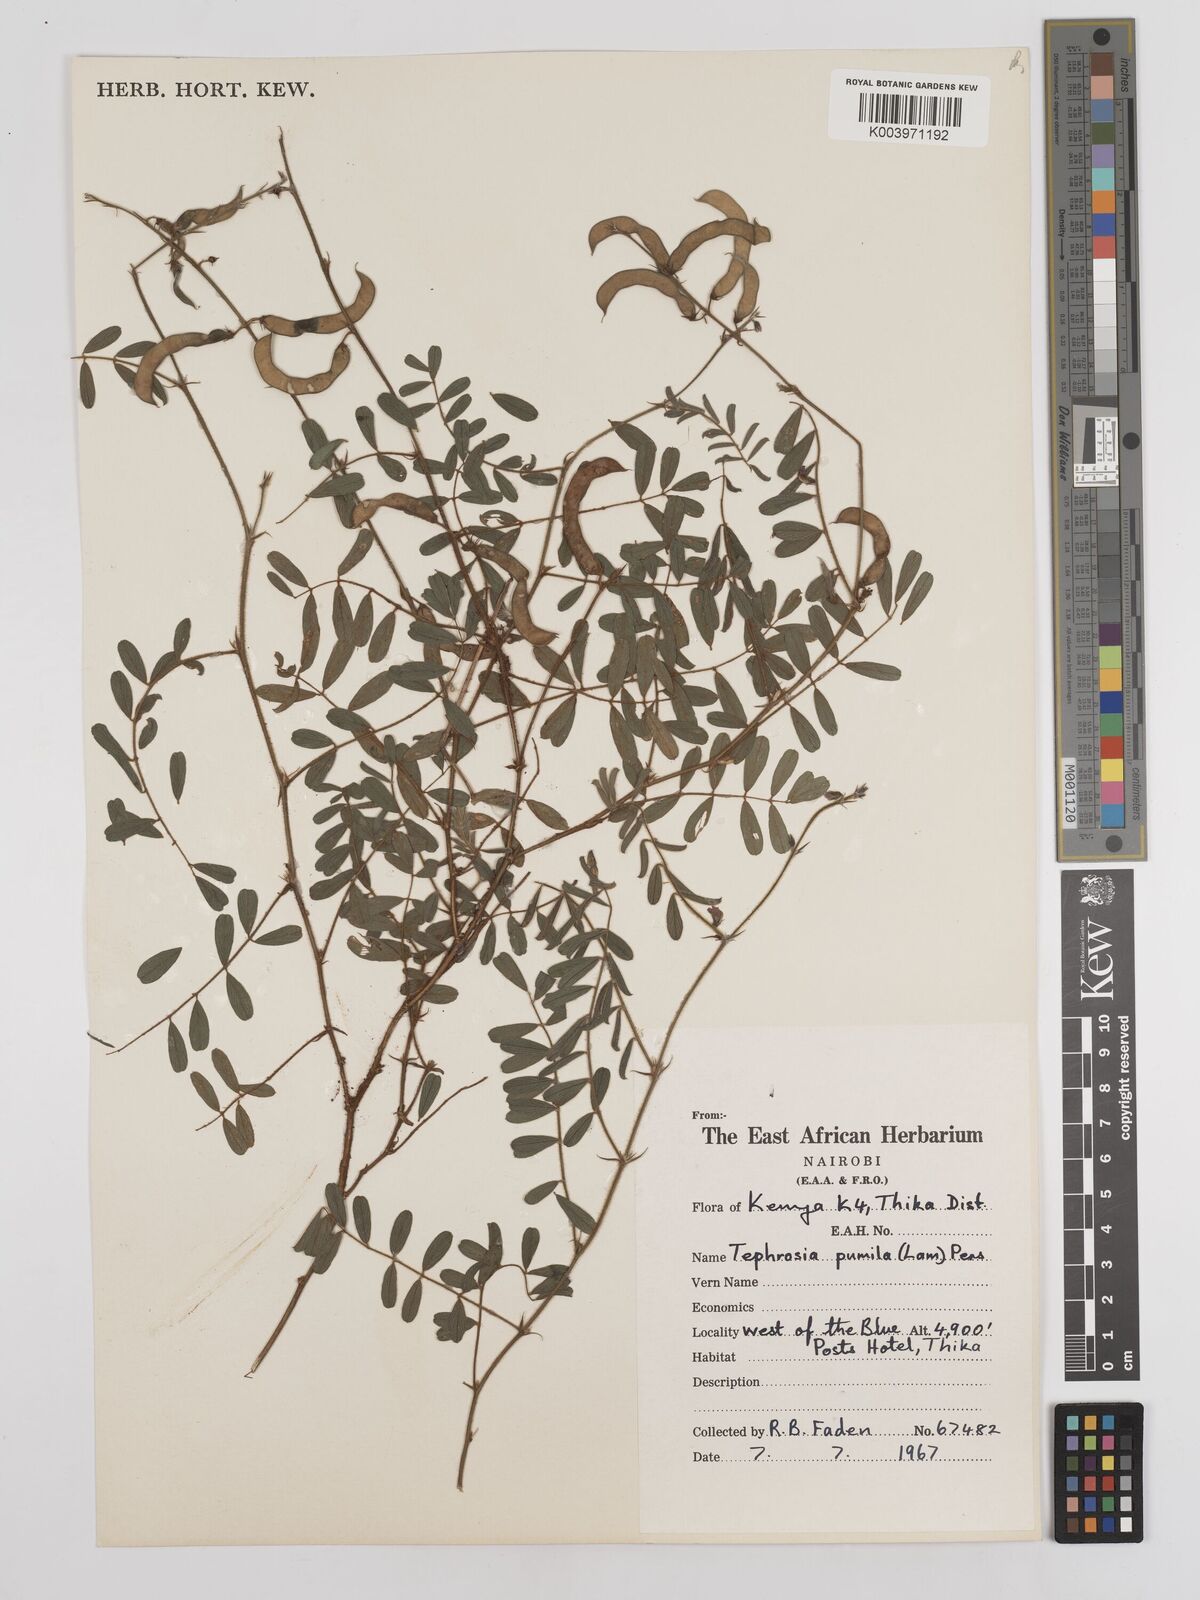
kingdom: Plantae
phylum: Tracheophyta
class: Magnoliopsida
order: Fabales
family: Fabaceae
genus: Tephrosia
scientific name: Tephrosia pumila
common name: Indigo sauvage
